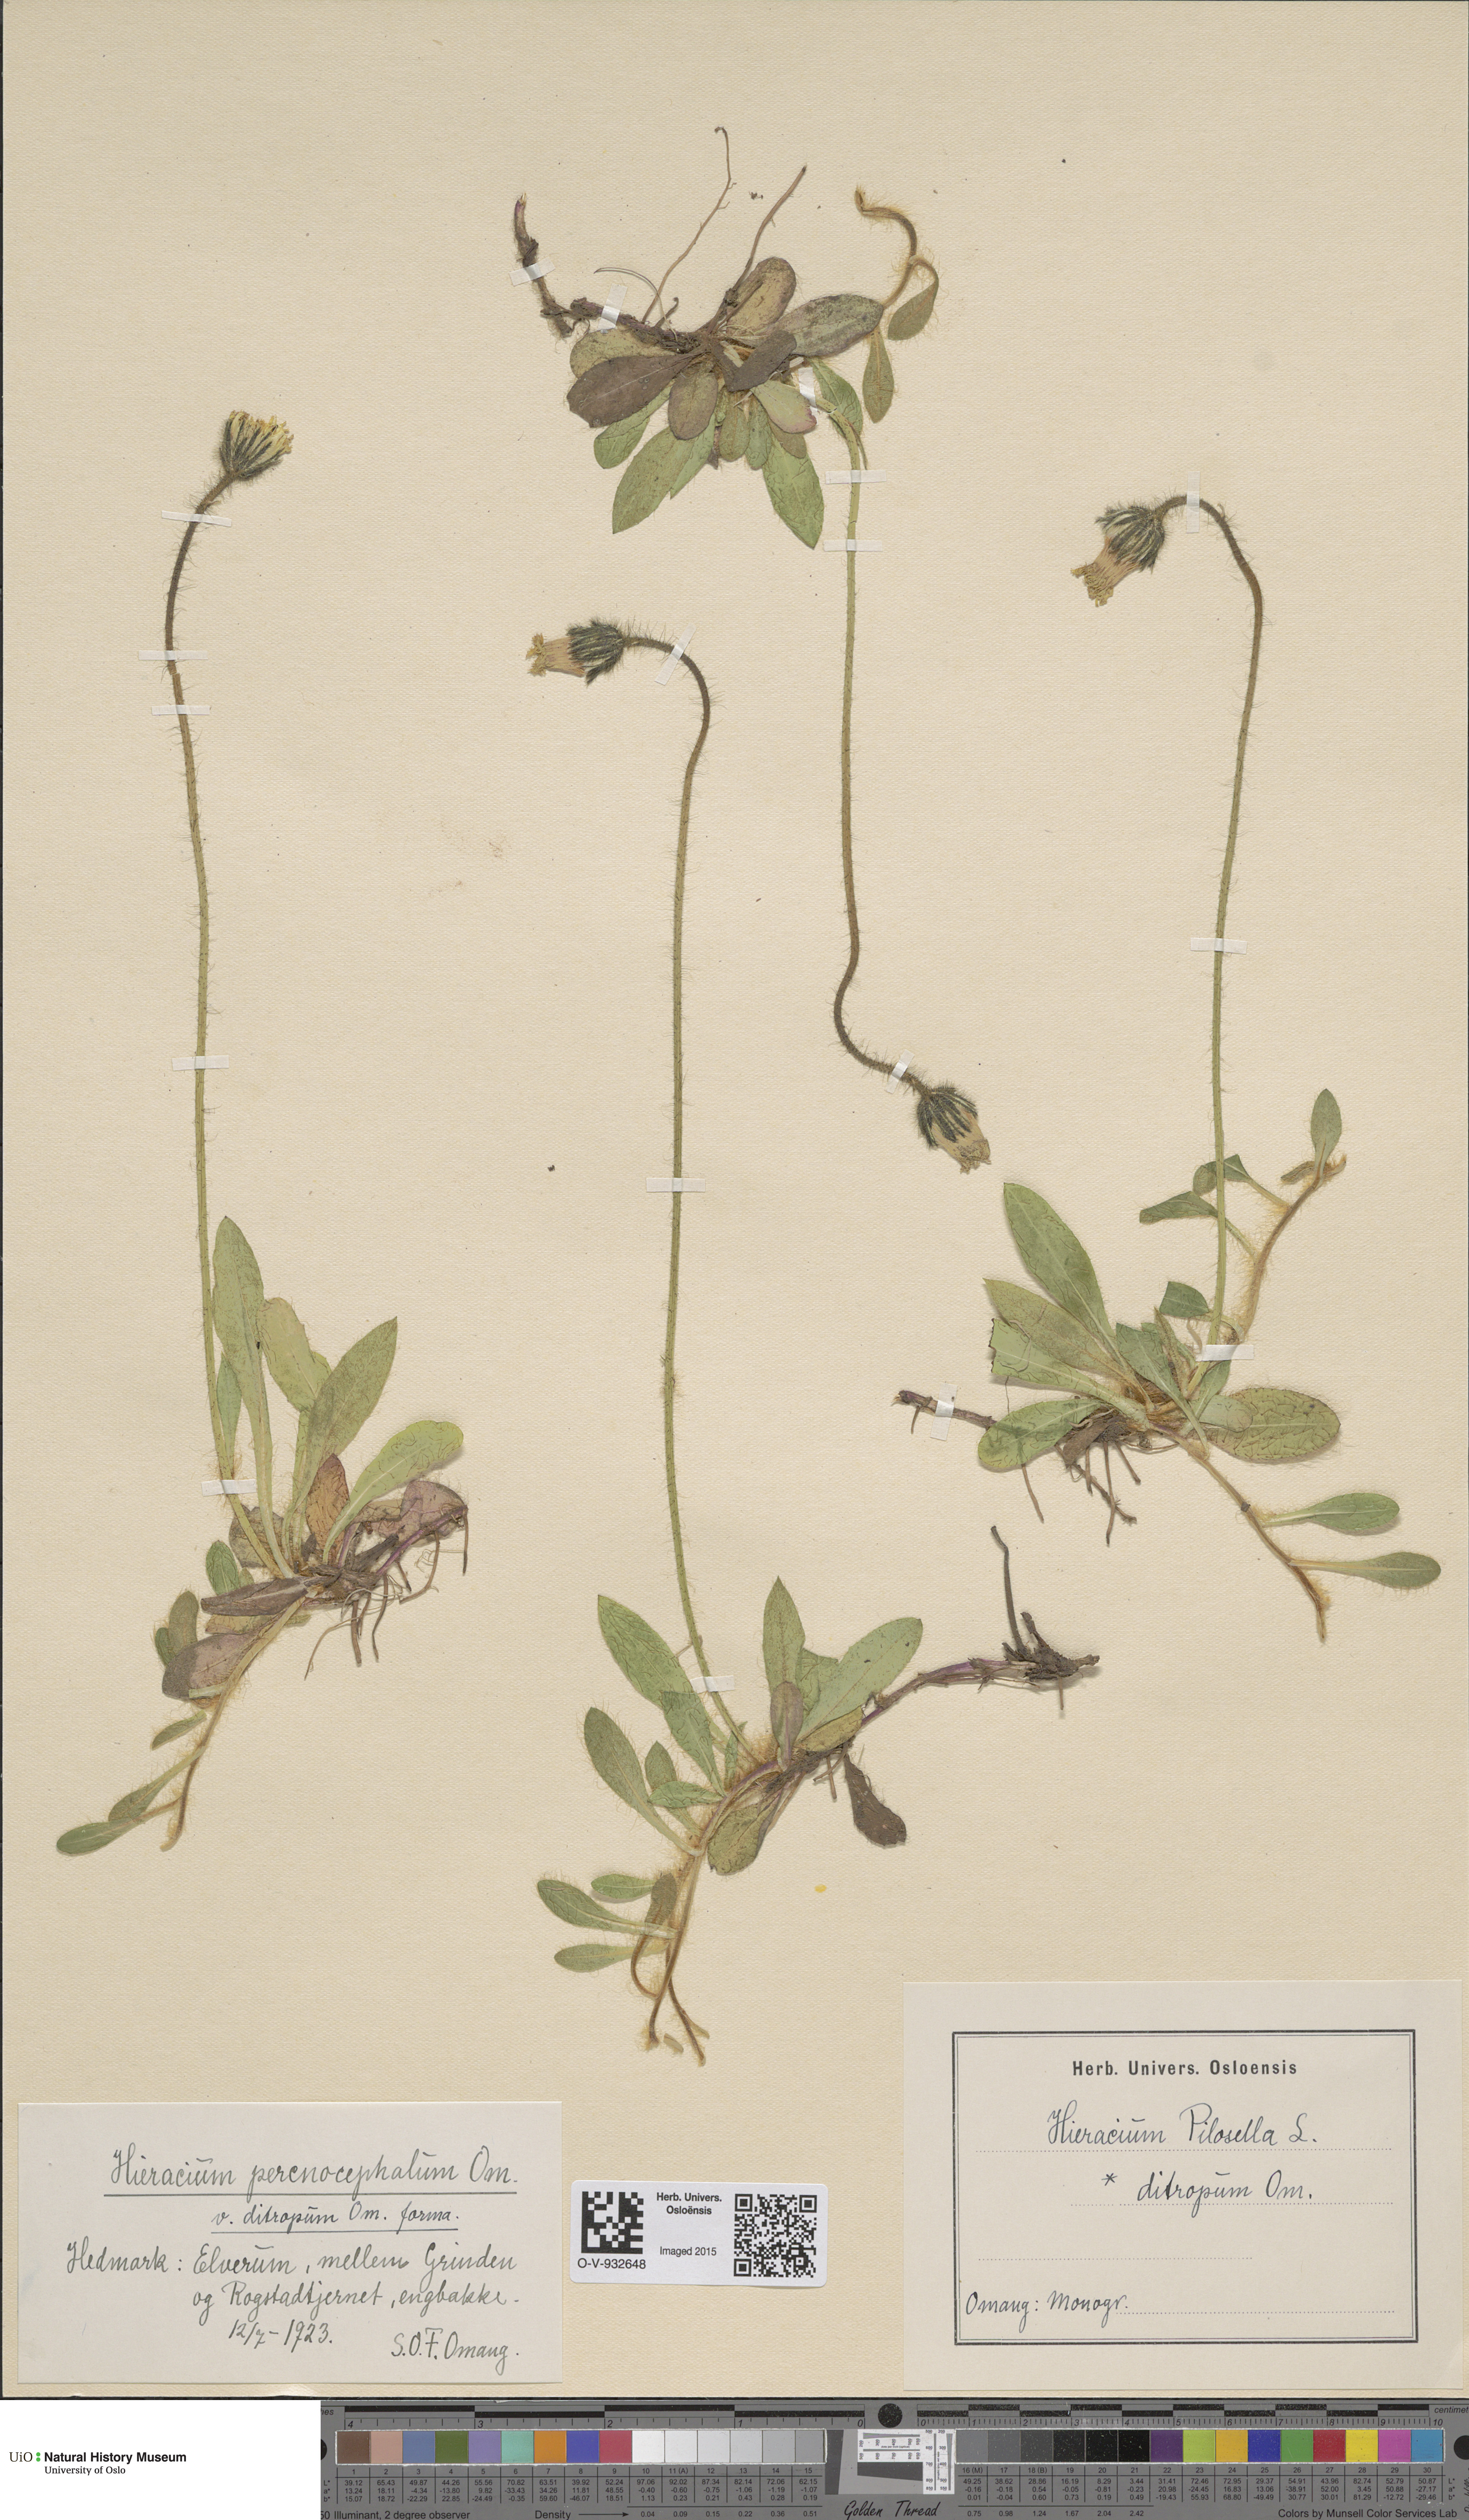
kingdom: Plantae
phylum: Tracheophyta
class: Magnoliopsida
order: Asterales
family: Asteraceae
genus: Pilosella
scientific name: Pilosella officinarum
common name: Mouse-ear hawkweed
